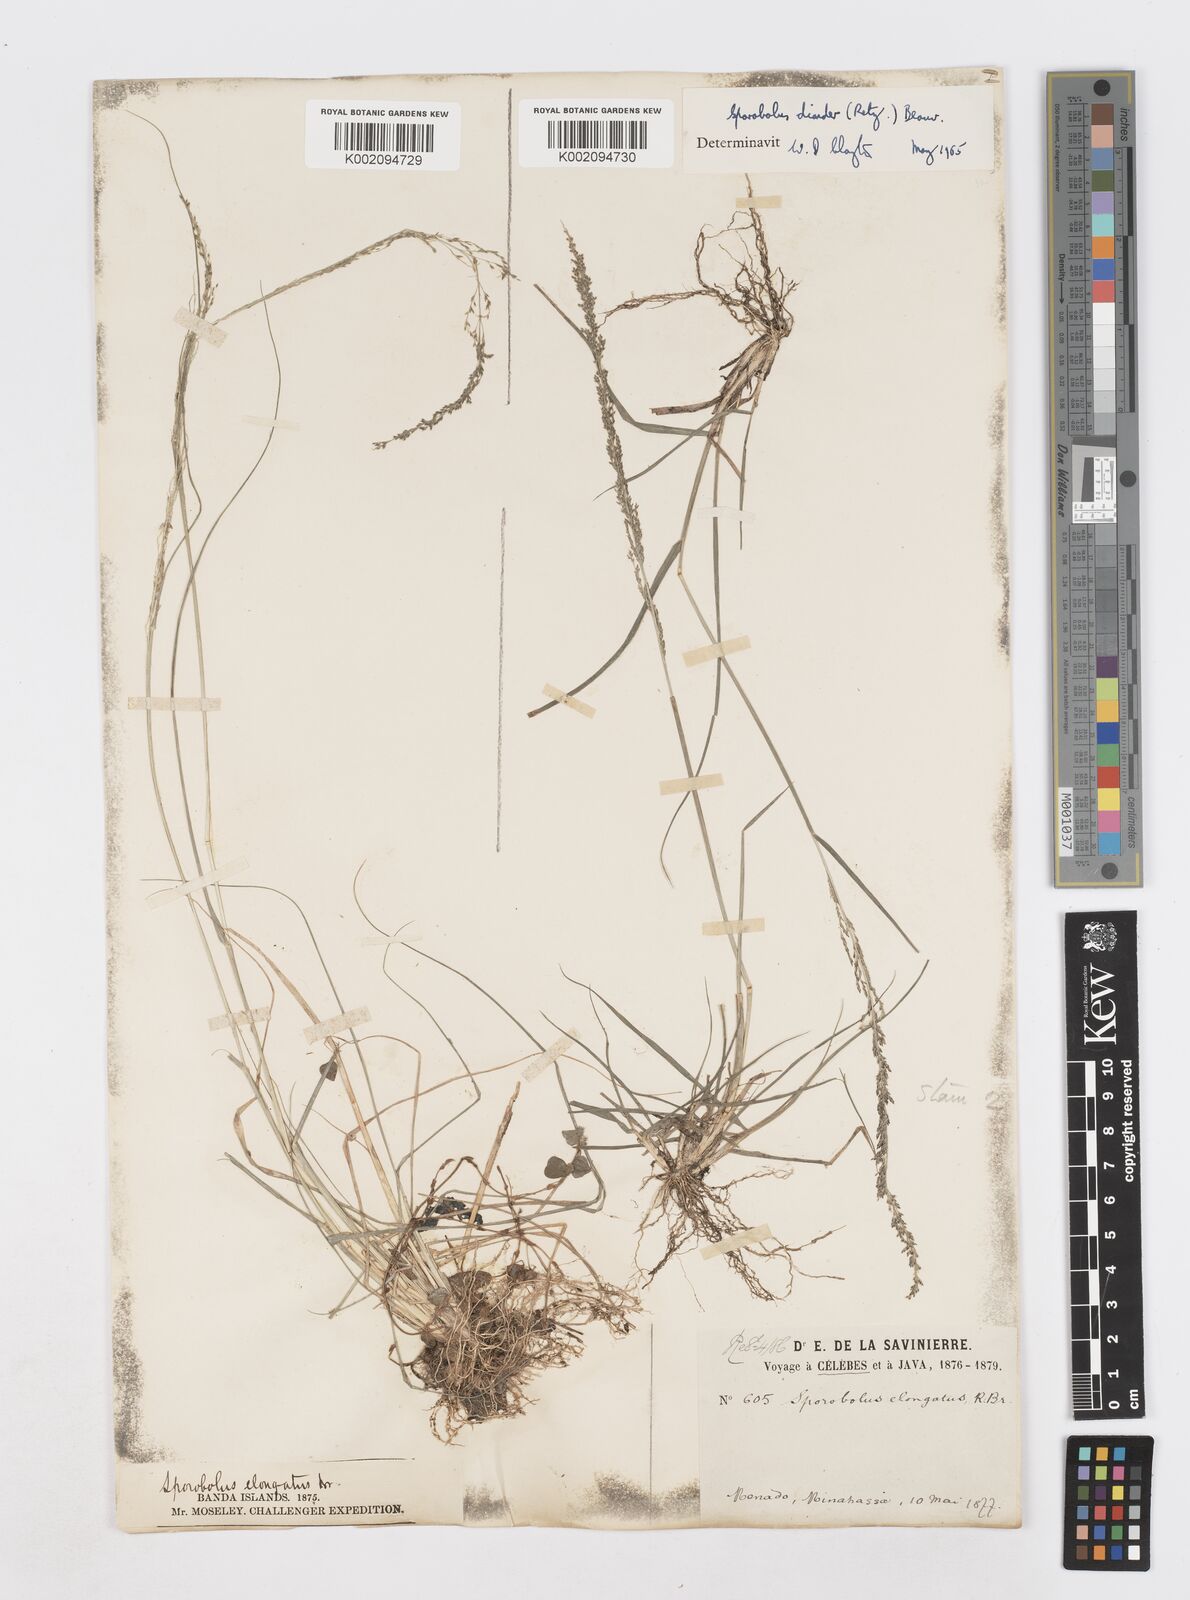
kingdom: Plantae
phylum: Tracheophyta
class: Liliopsida
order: Poales
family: Poaceae
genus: Sporobolus
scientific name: Sporobolus diandrus
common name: Tussock dropseed
